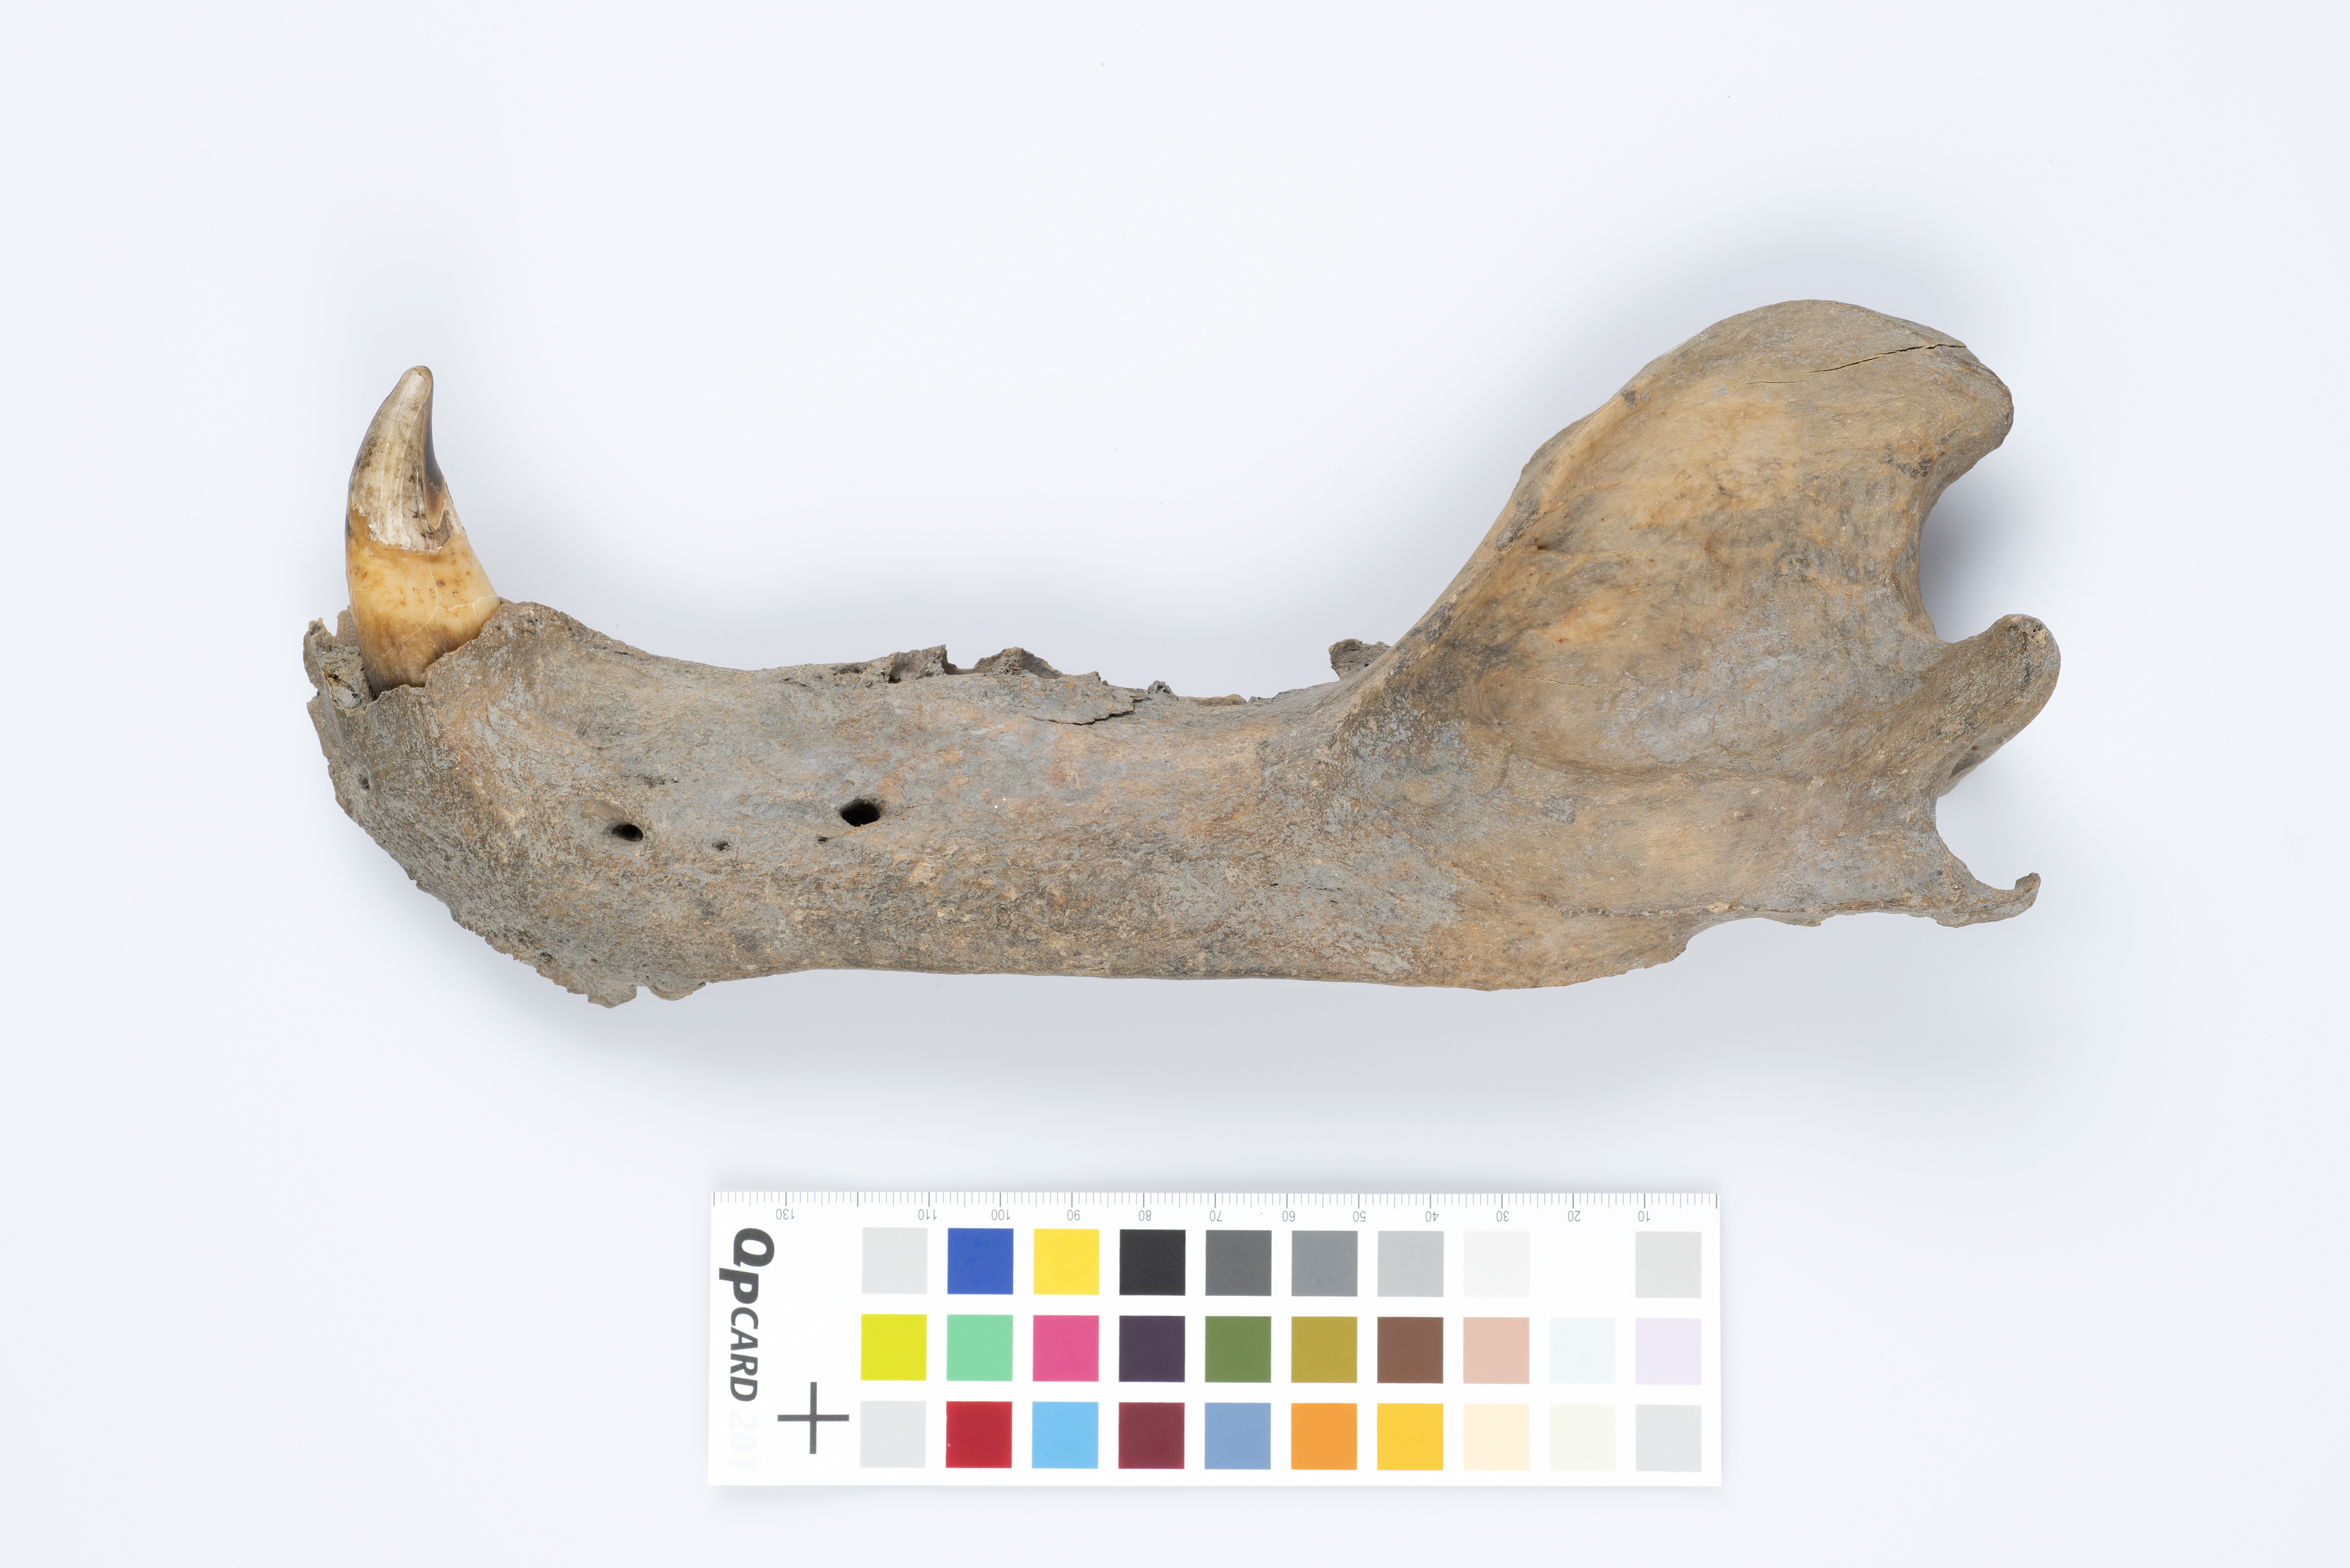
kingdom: Animalia
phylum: Chordata
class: Mammalia
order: Carnivora
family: Ursidae
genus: Ursus
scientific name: Ursus maritimus
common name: Polar bear
